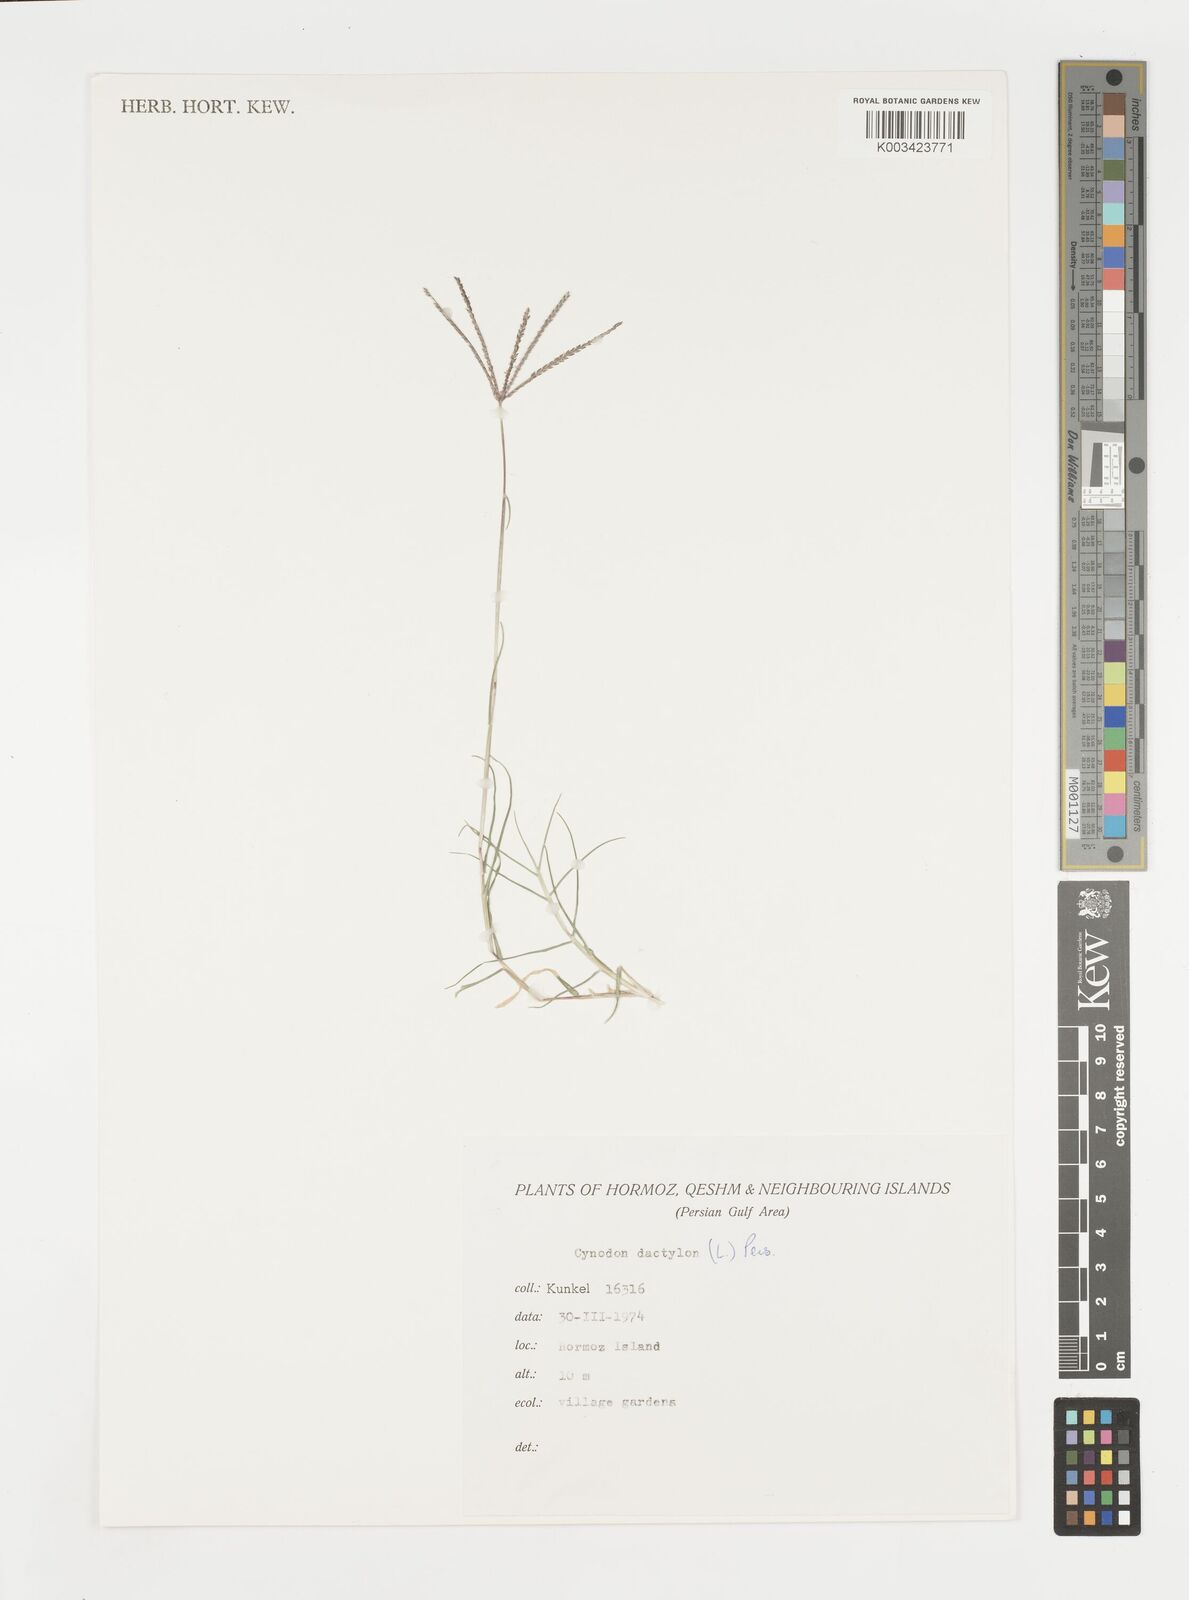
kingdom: Plantae
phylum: Tracheophyta
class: Liliopsida
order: Poales
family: Poaceae
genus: Cynodon
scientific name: Cynodon dactylon
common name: Bermuda grass
